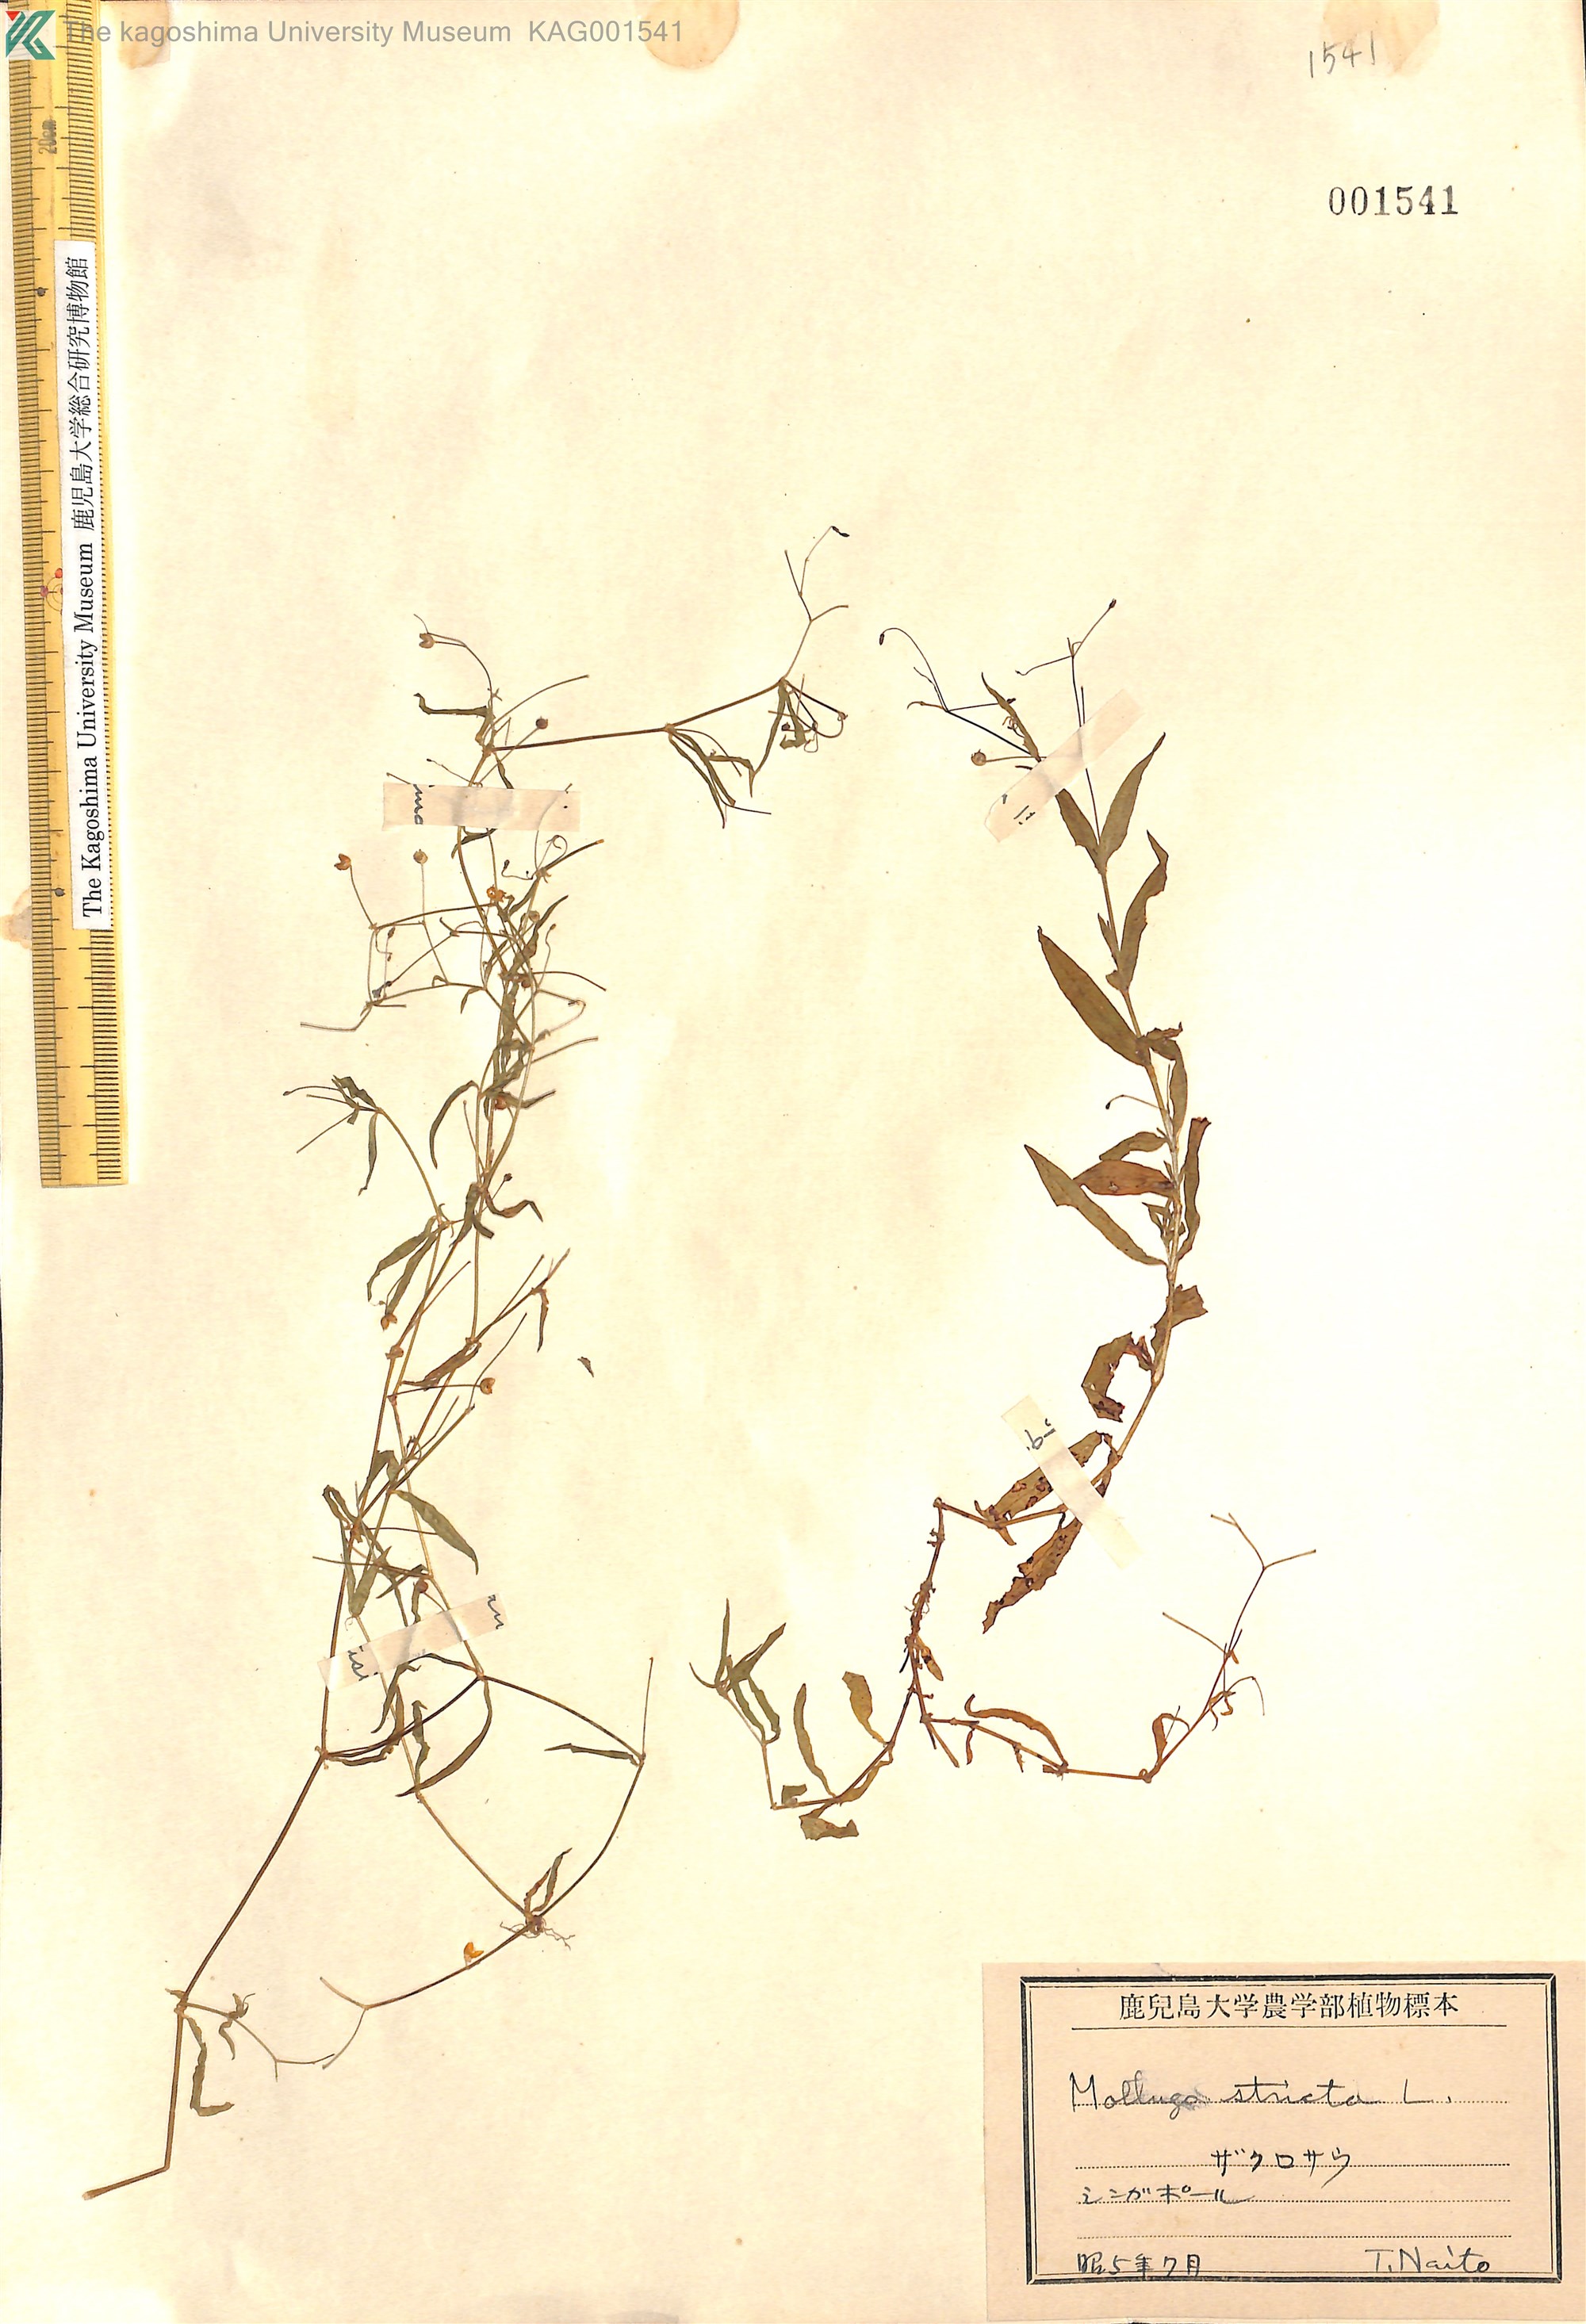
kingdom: Plantae
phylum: Tracheophyta
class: Magnoliopsida
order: Caryophyllales
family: Molluginaceae
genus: Trigastrotheca
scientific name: Trigastrotheca stricta
